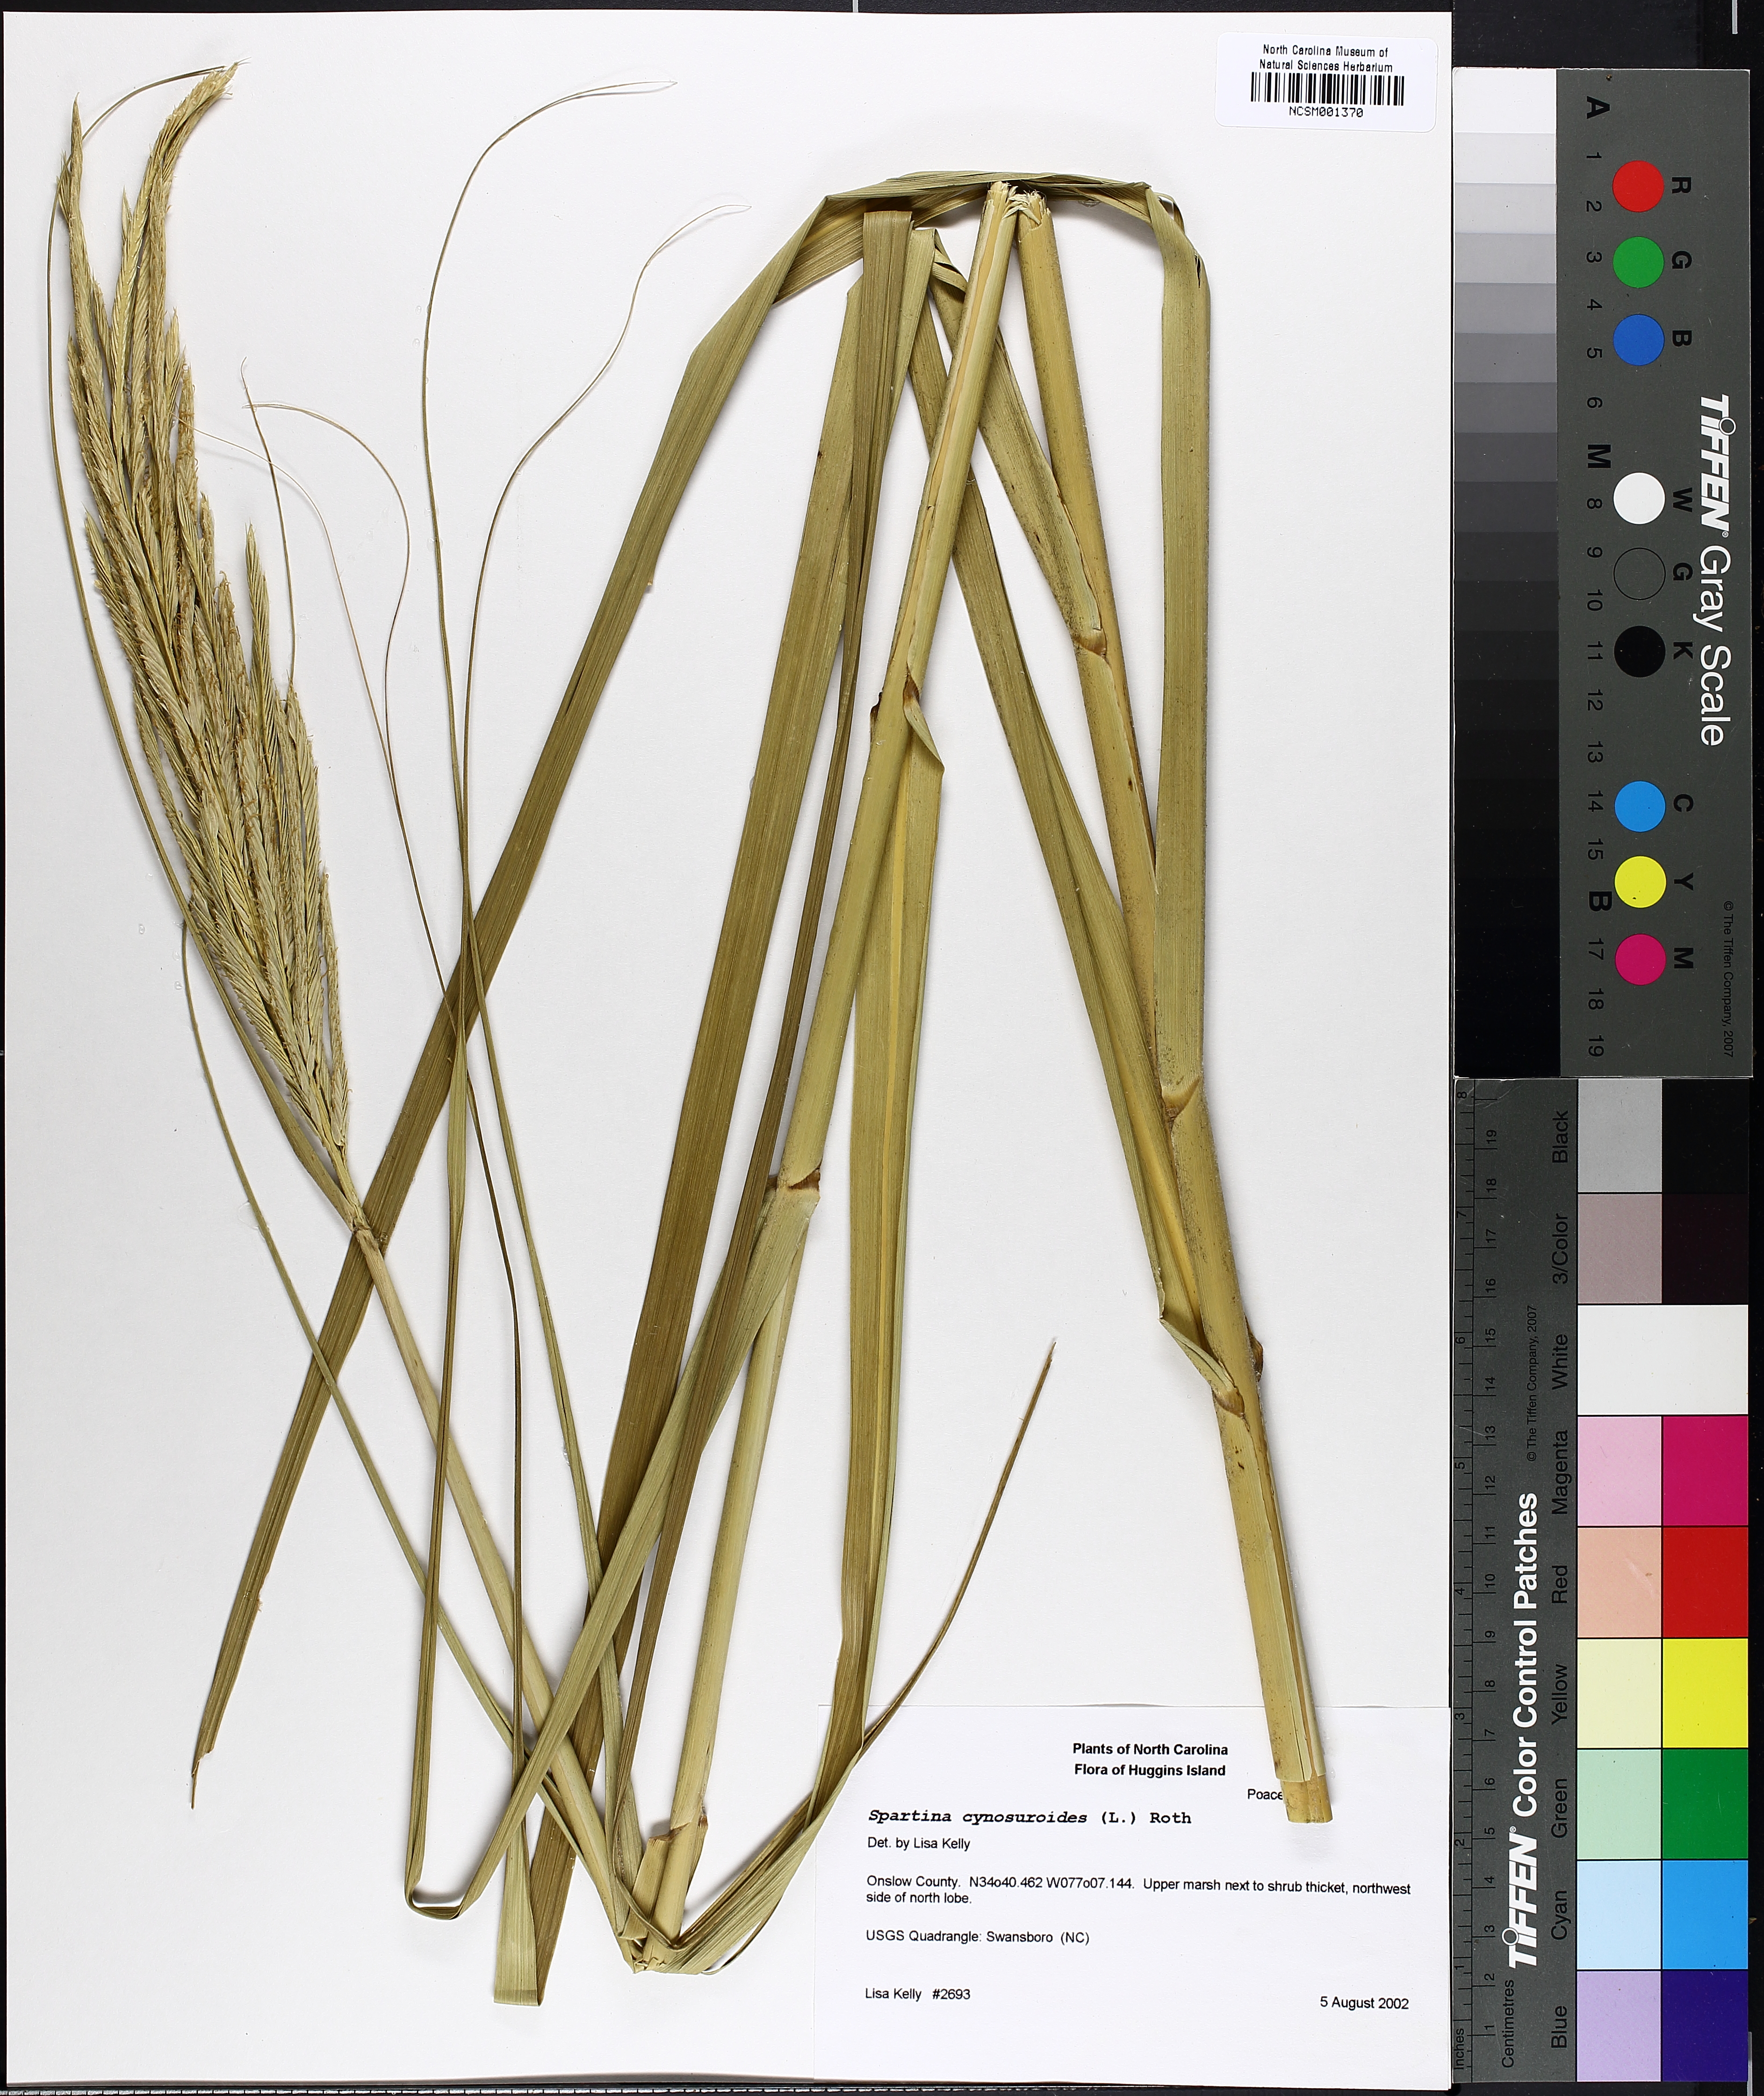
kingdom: Plantae
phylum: Tracheophyta
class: Liliopsida
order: Poales
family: Poaceae
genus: Sporobolus
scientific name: Sporobolus cynosuroides
